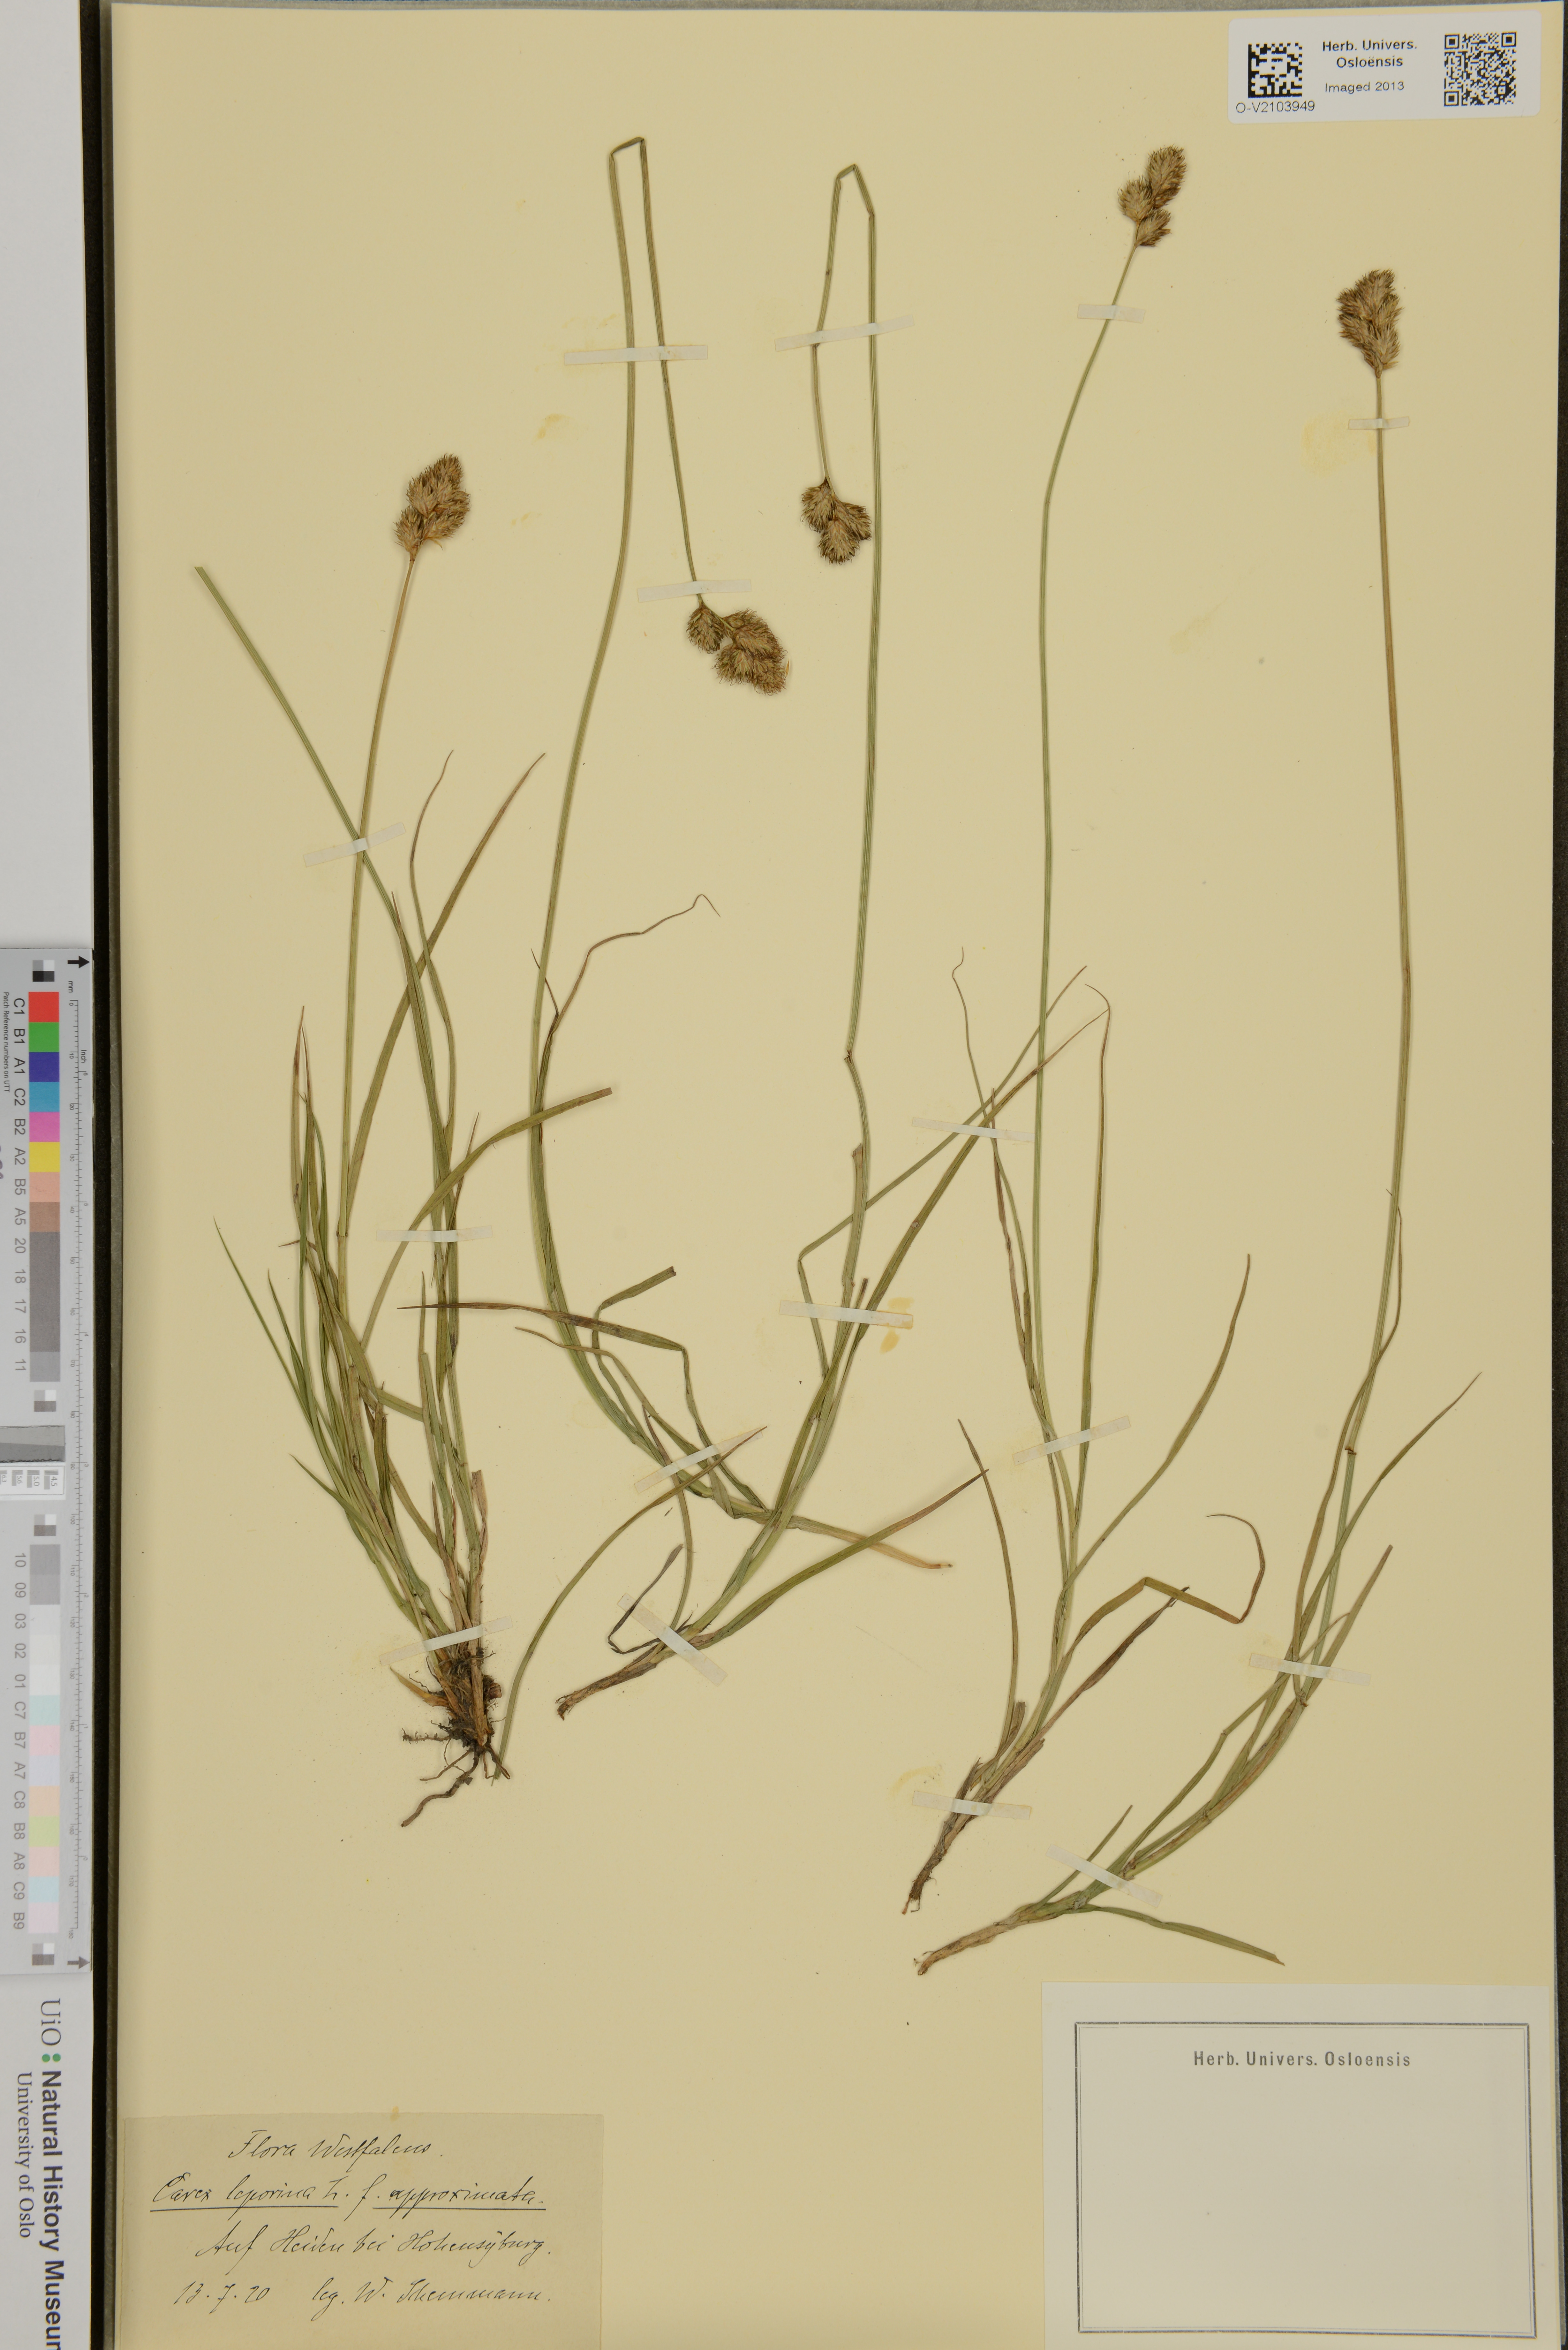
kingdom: Plantae
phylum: Tracheophyta
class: Liliopsida
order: Poales
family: Cyperaceae
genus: Carex
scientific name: Carex leporina
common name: Oval sedge
